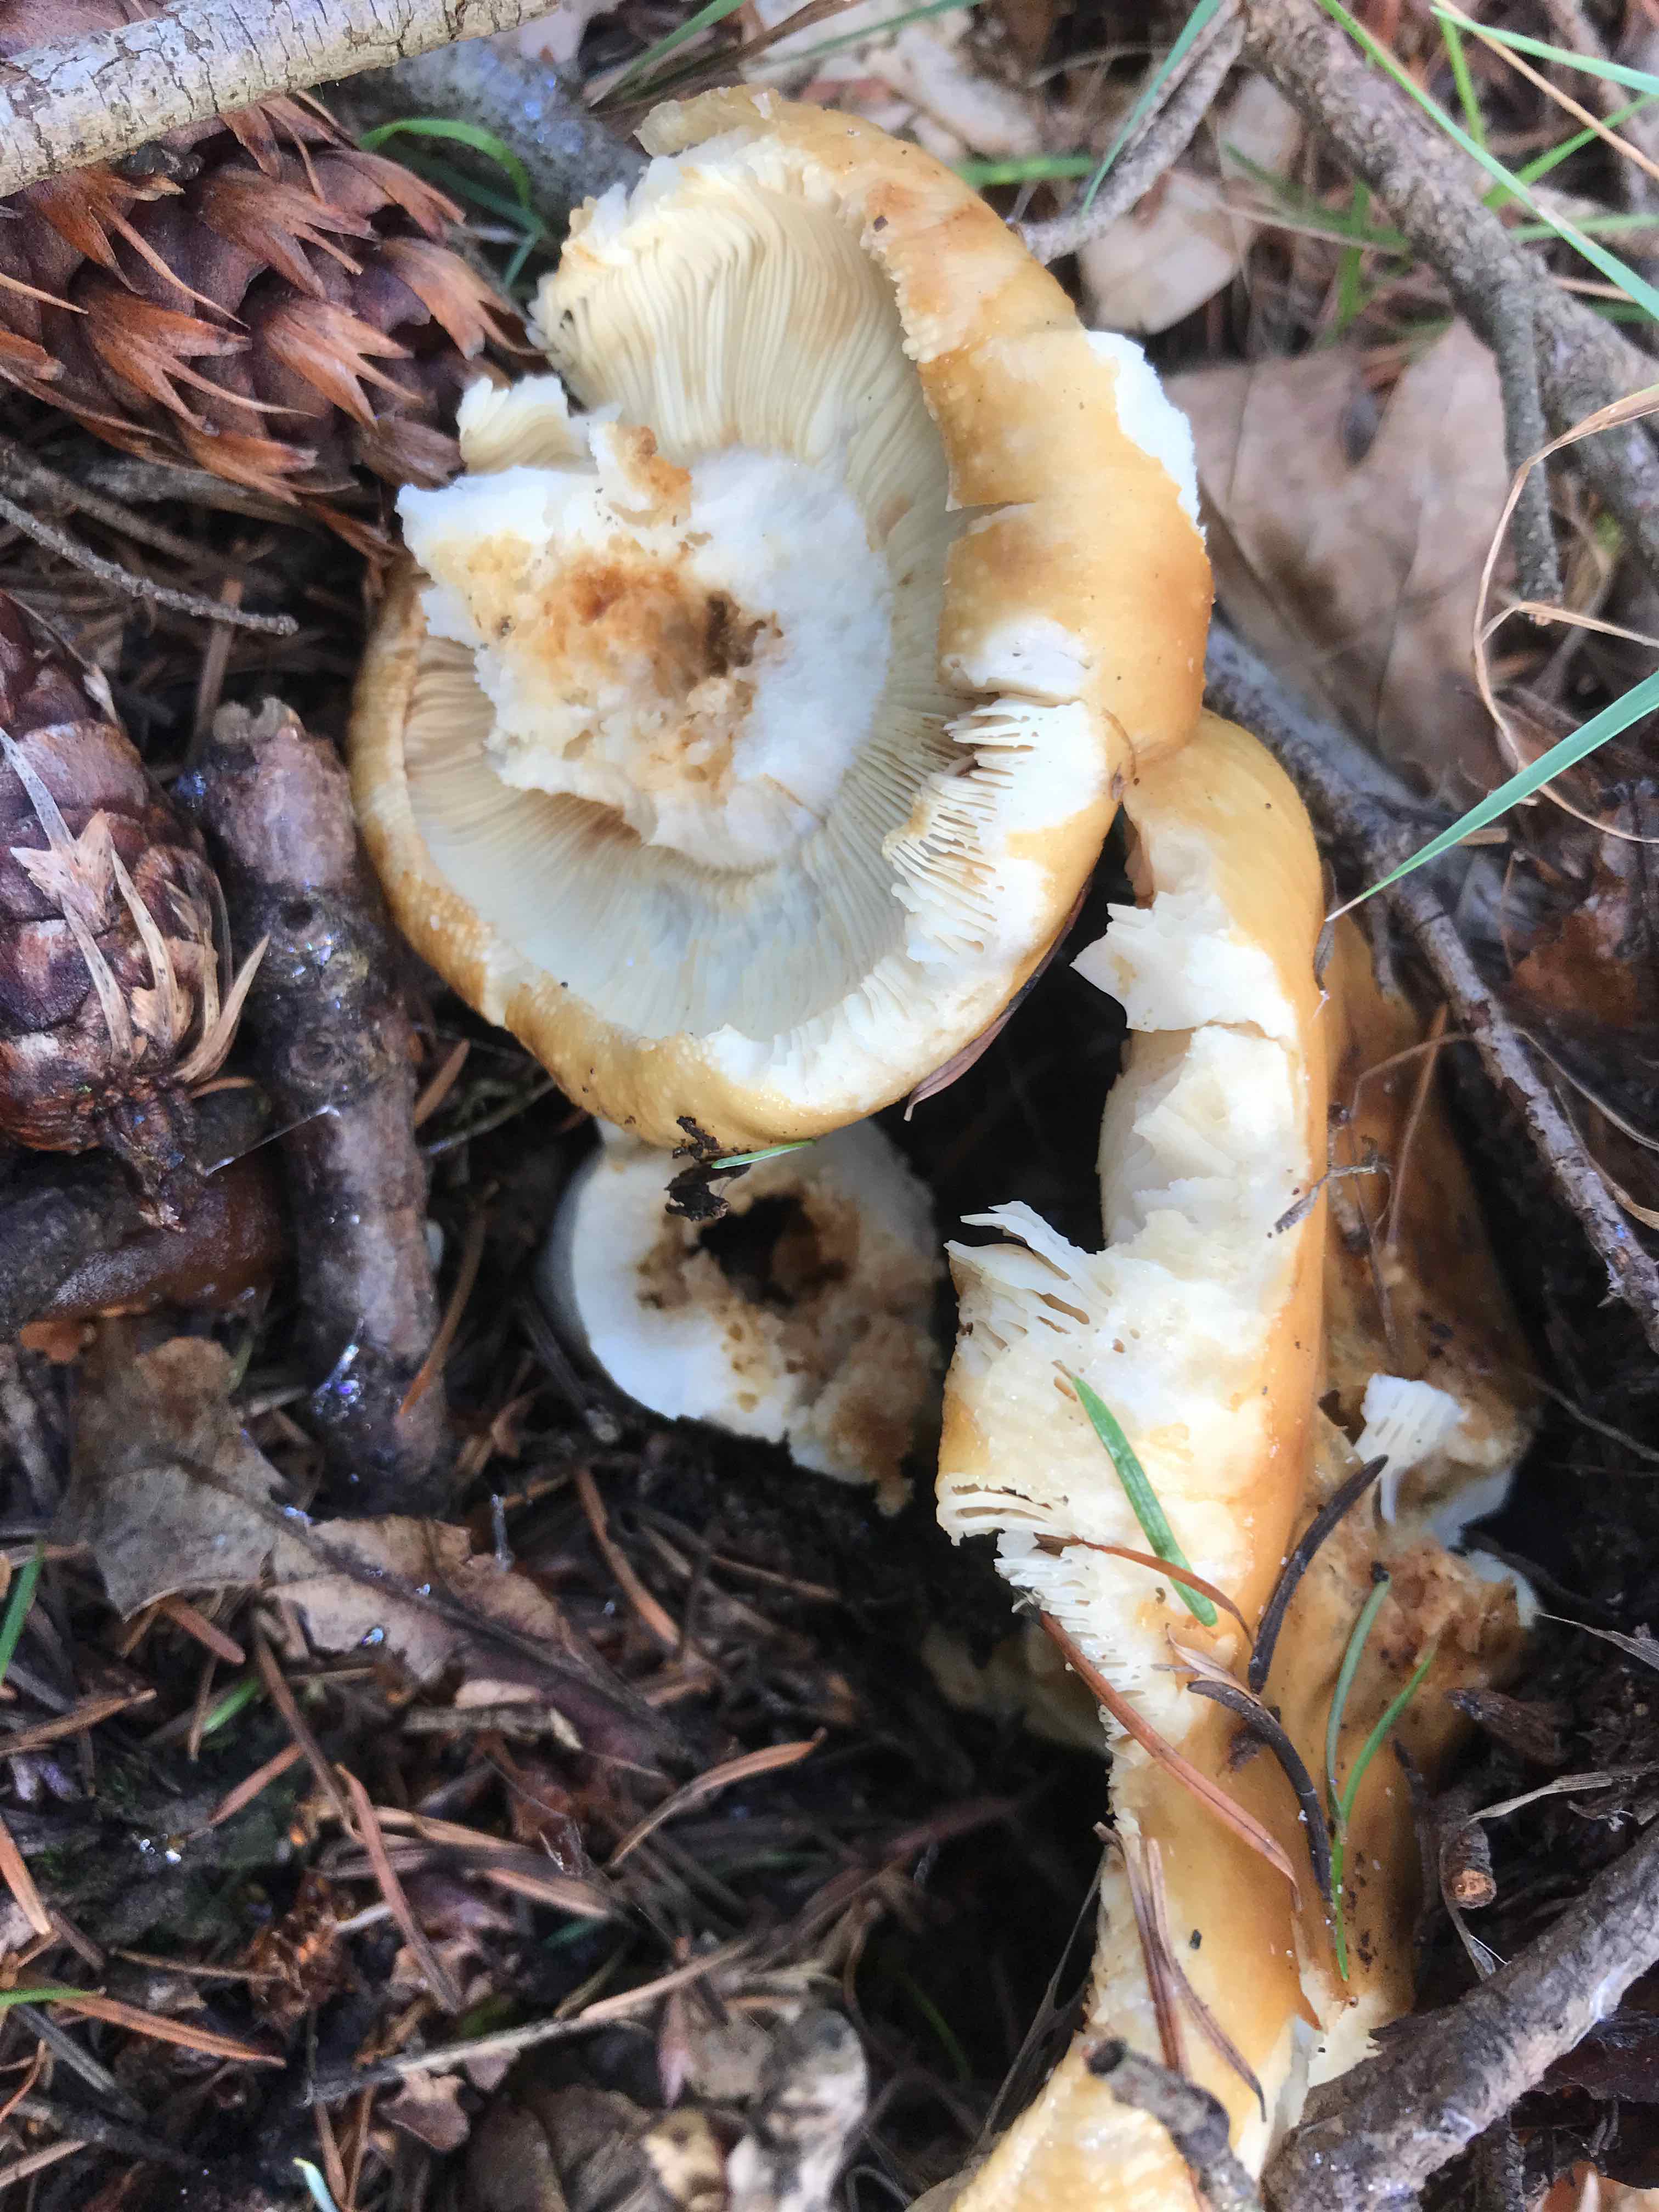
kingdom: Fungi
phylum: Basidiomycota
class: Agaricomycetes
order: Russulales
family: Russulaceae
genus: Russula
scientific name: Russula foetens
